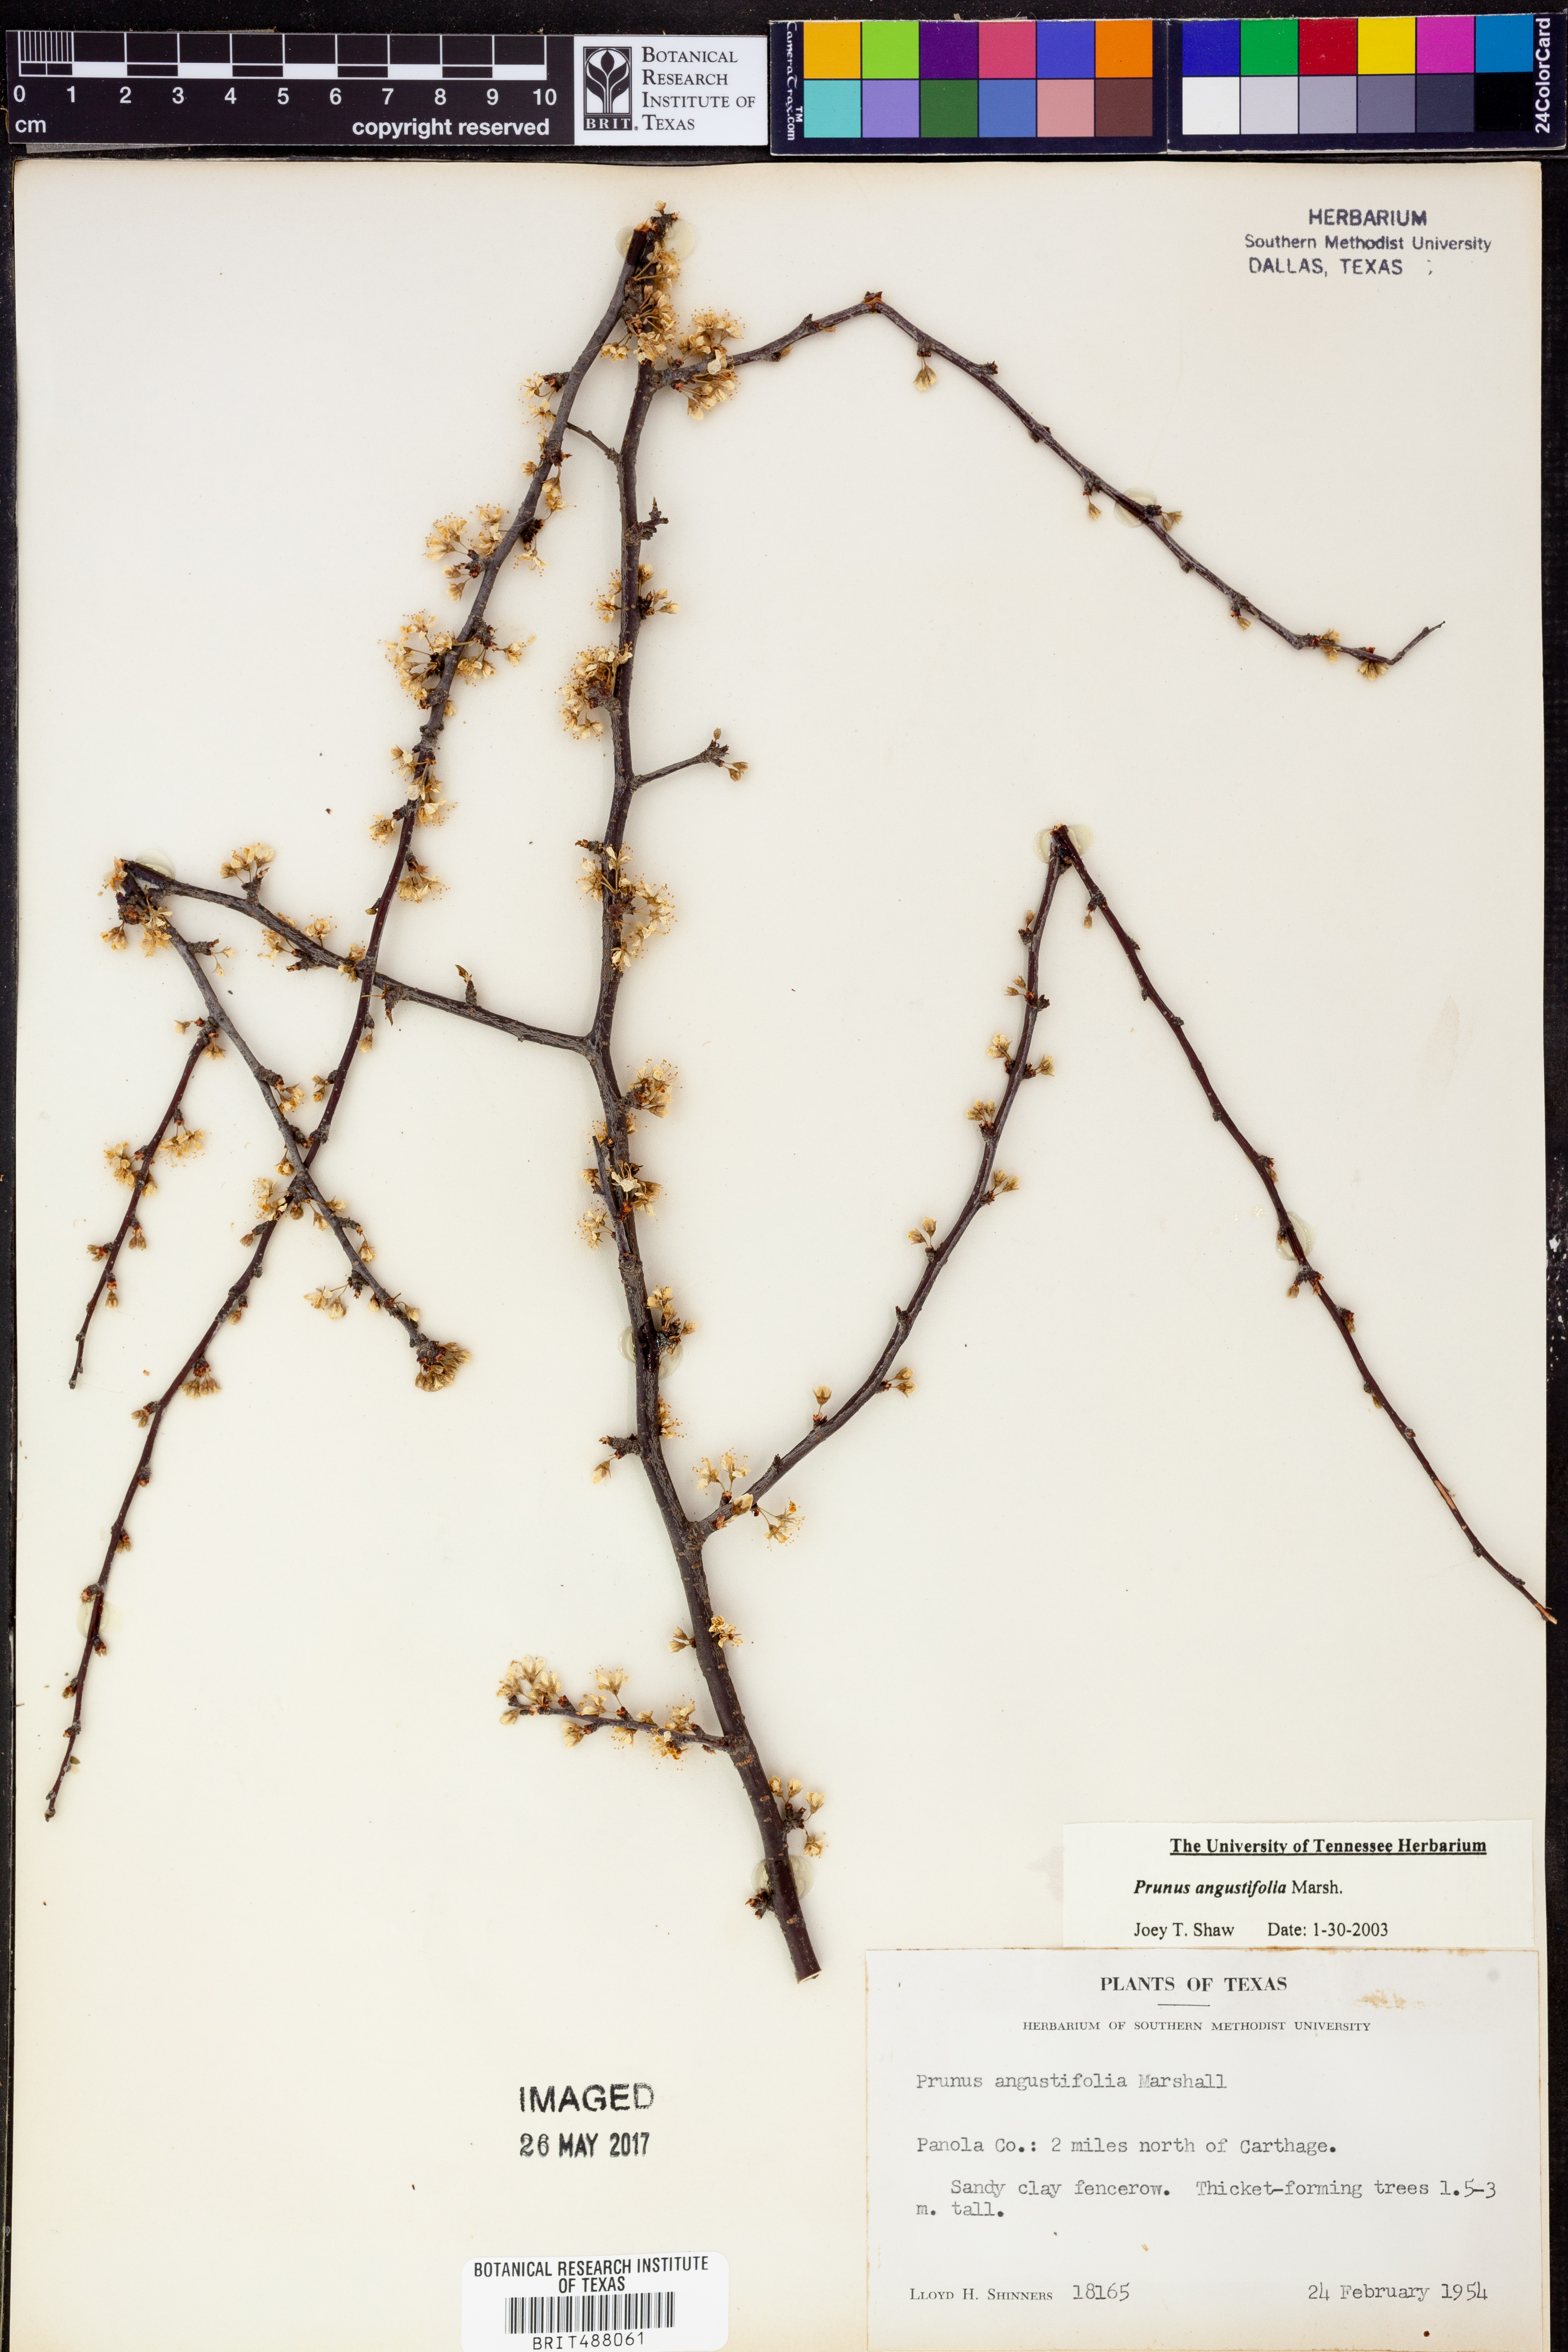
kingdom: Plantae
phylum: Tracheophyta
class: Magnoliopsida
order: Rosales
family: Rosaceae
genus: Prunus
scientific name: Prunus angustifolia
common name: Cherokee plum
